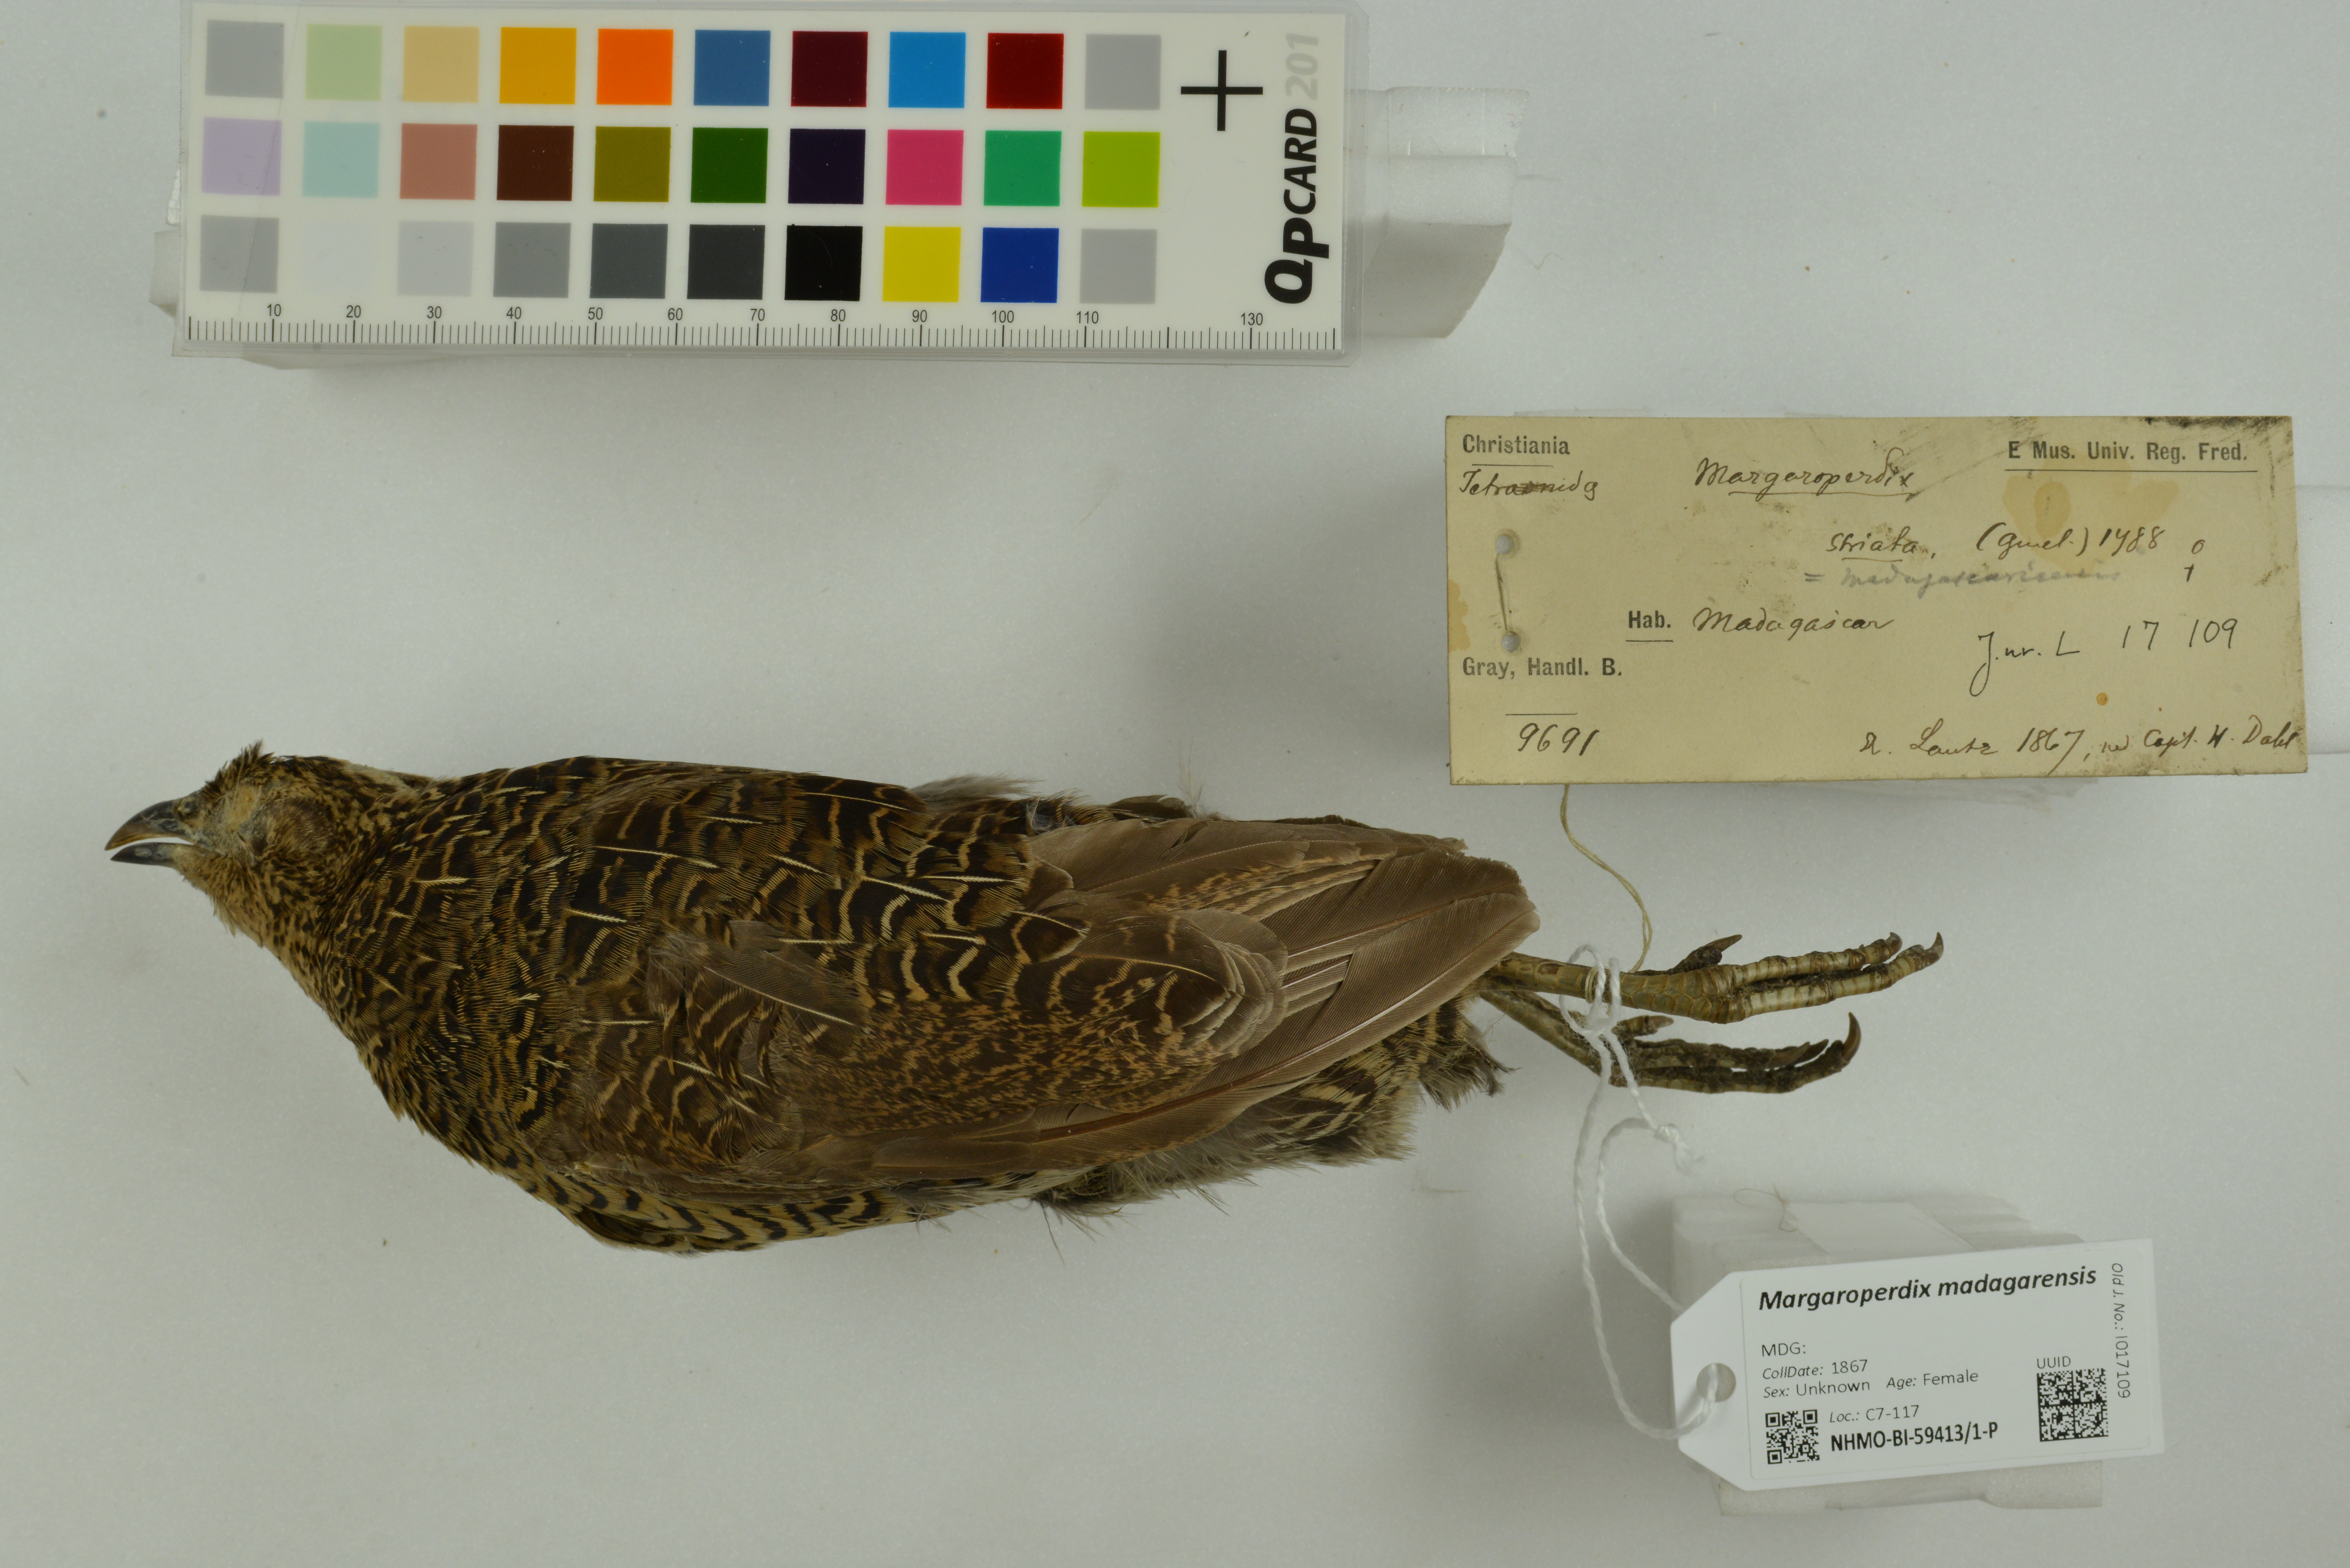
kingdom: Animalia
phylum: Chordata
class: Aves
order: Galliformes
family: Phasianidae
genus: Margaroperdix
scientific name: Margaroperdix madagarensis
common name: Madagascar partridge
